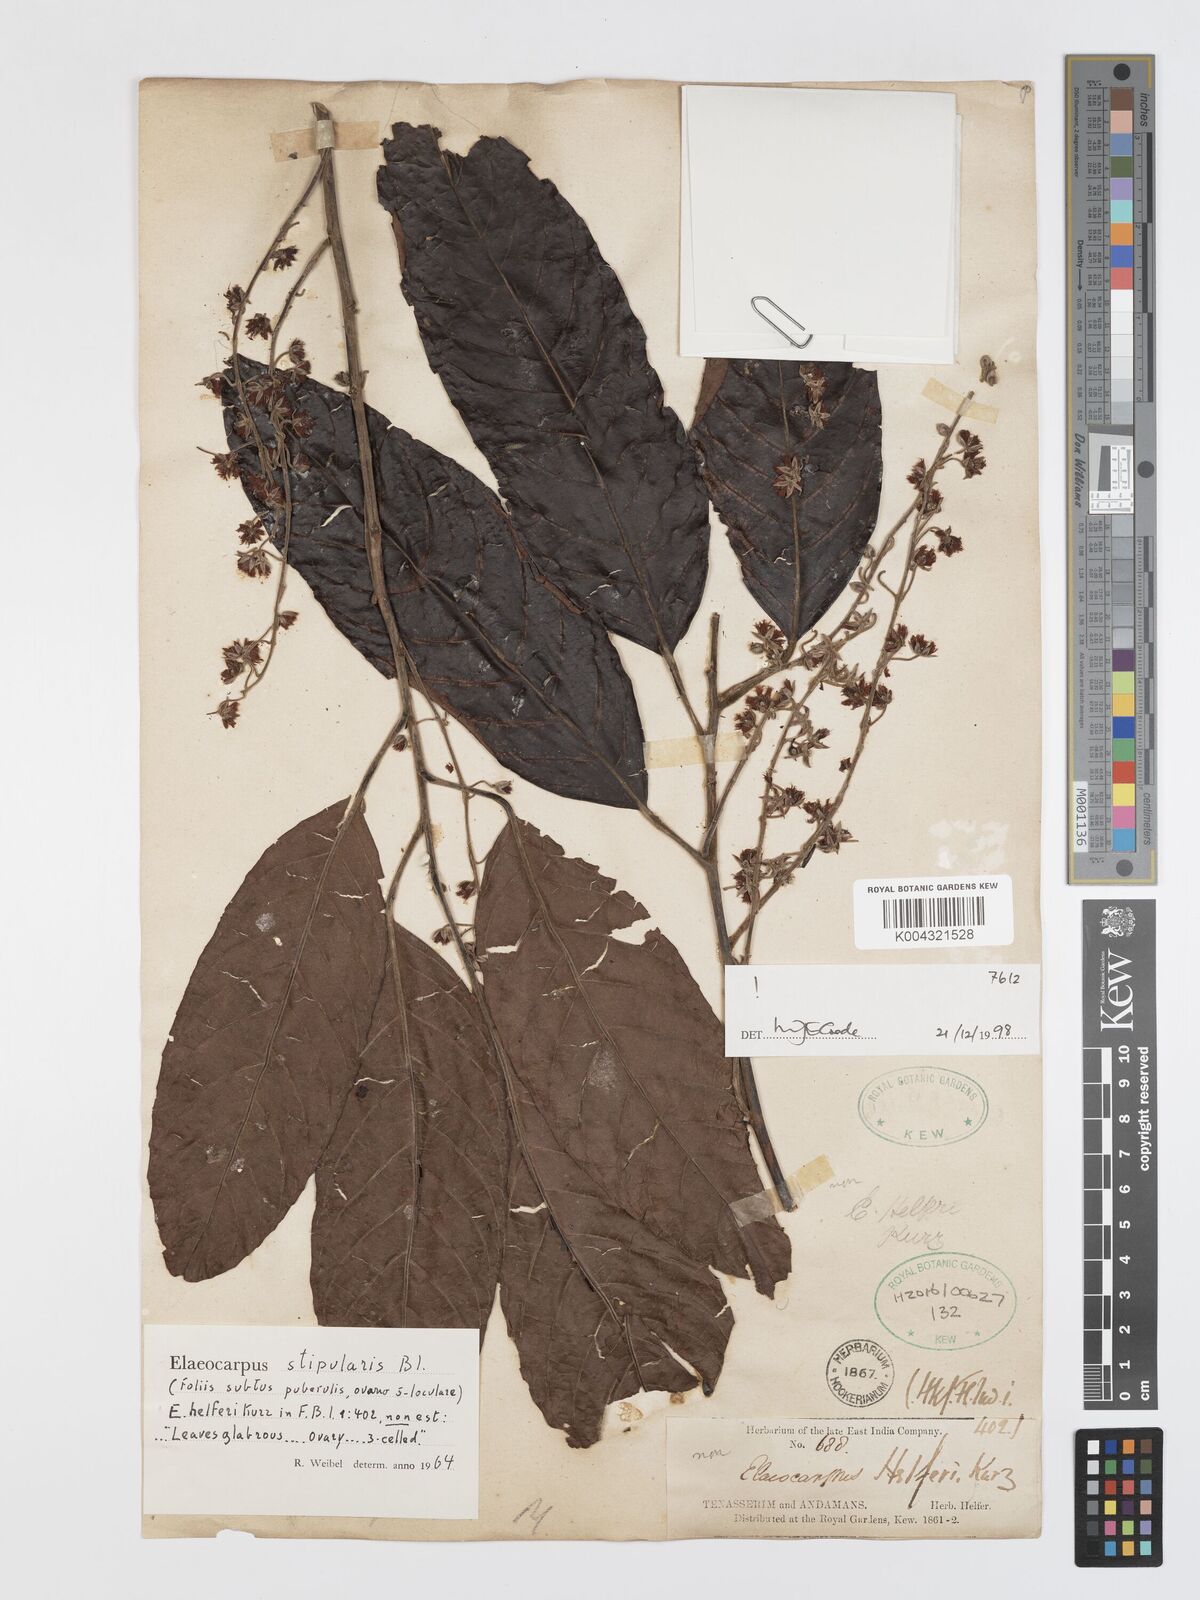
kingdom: Plantae
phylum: Tracheophyta
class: Magnoliopsida
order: Oxalidales
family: Elaeocarpaceae
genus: Elaeocarpus
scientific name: Elaeocarpus stipularis
